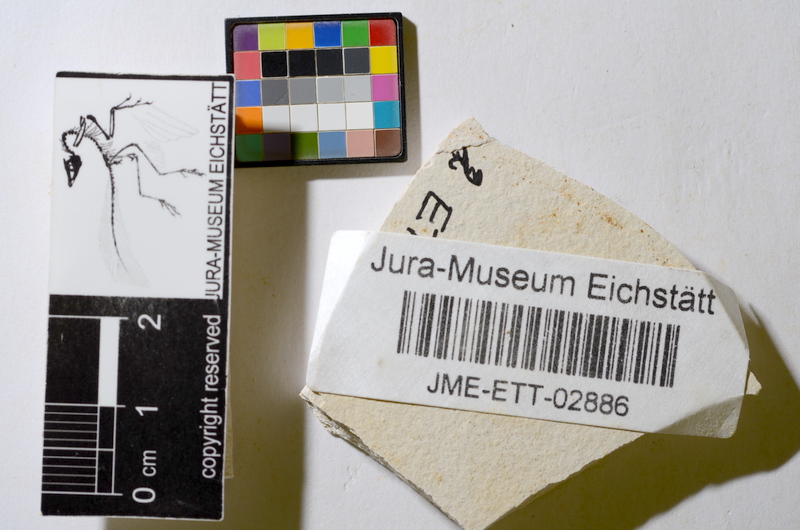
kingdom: Animalia
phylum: Chordata
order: Salmoniformes
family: Orthogonikleithridae
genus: Orthogonikleithrus
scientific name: Orthogonikleithrus hoelli
